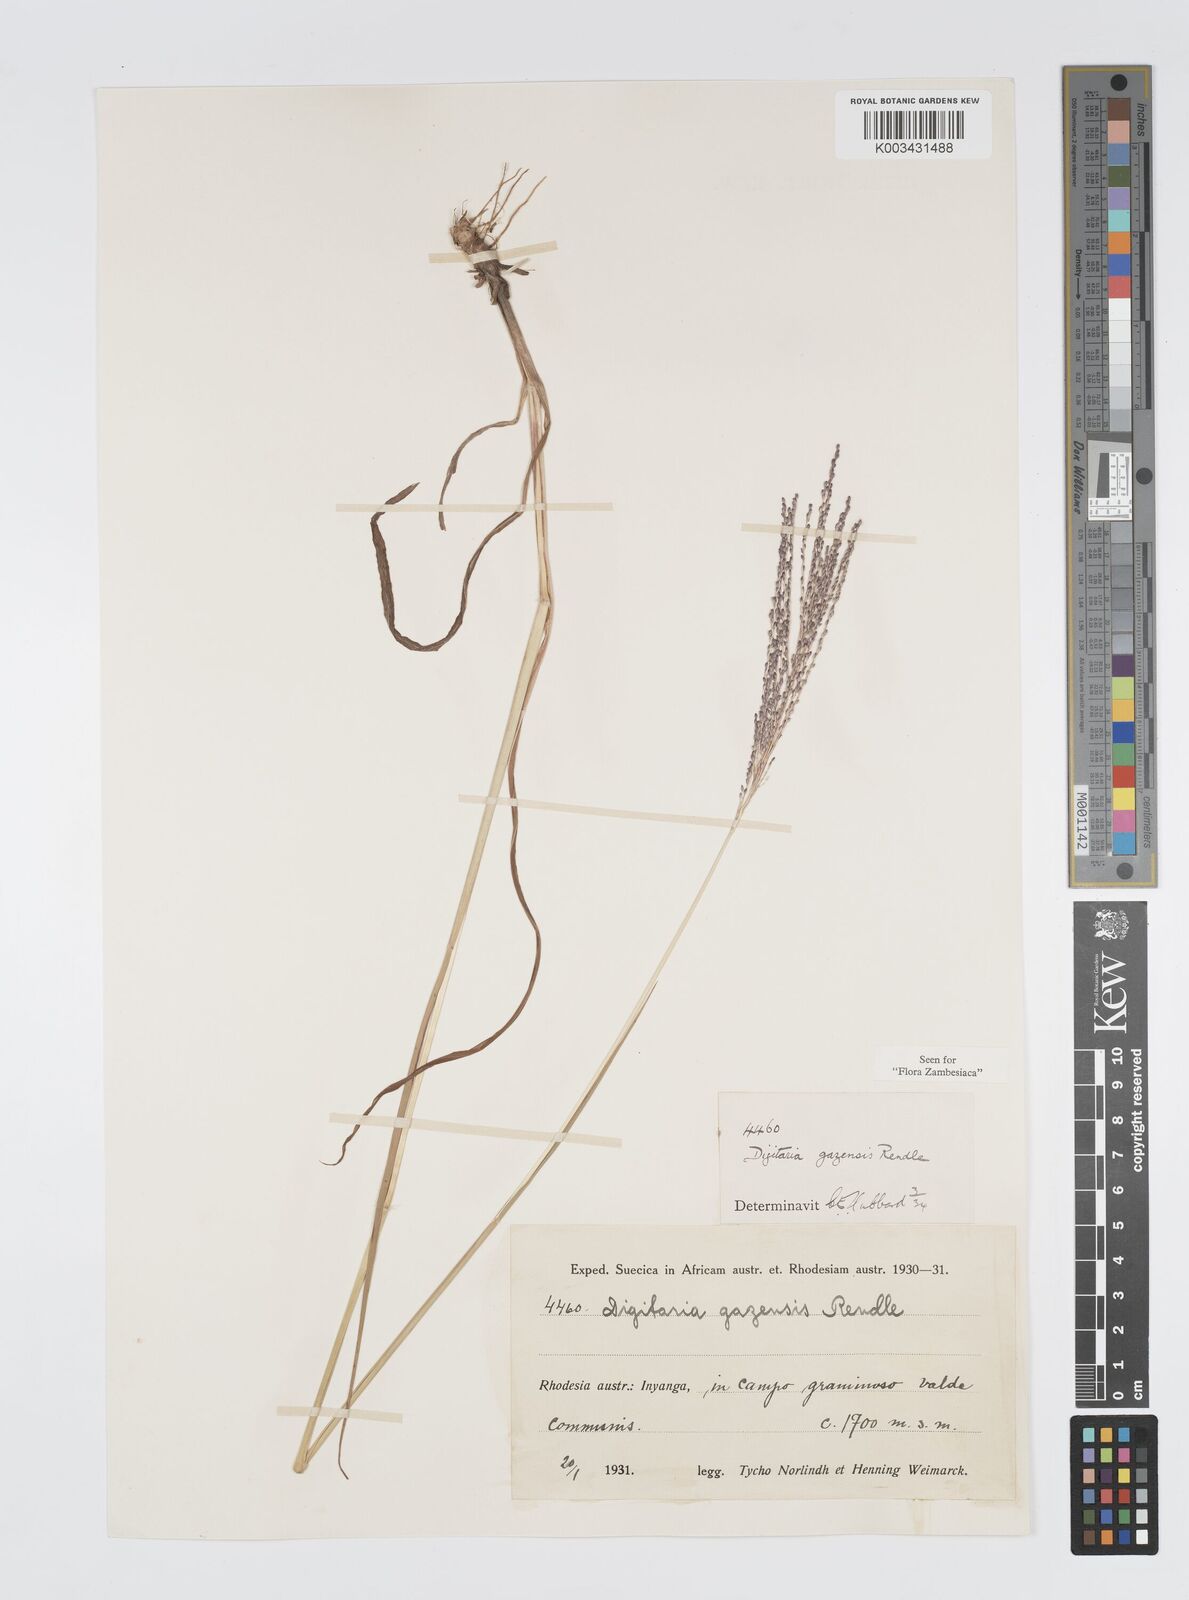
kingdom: Plantae
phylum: Tracheophyta
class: Liliopsida
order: Poales
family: Poaceae
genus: Digitaria
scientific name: Digitaria gazensis
